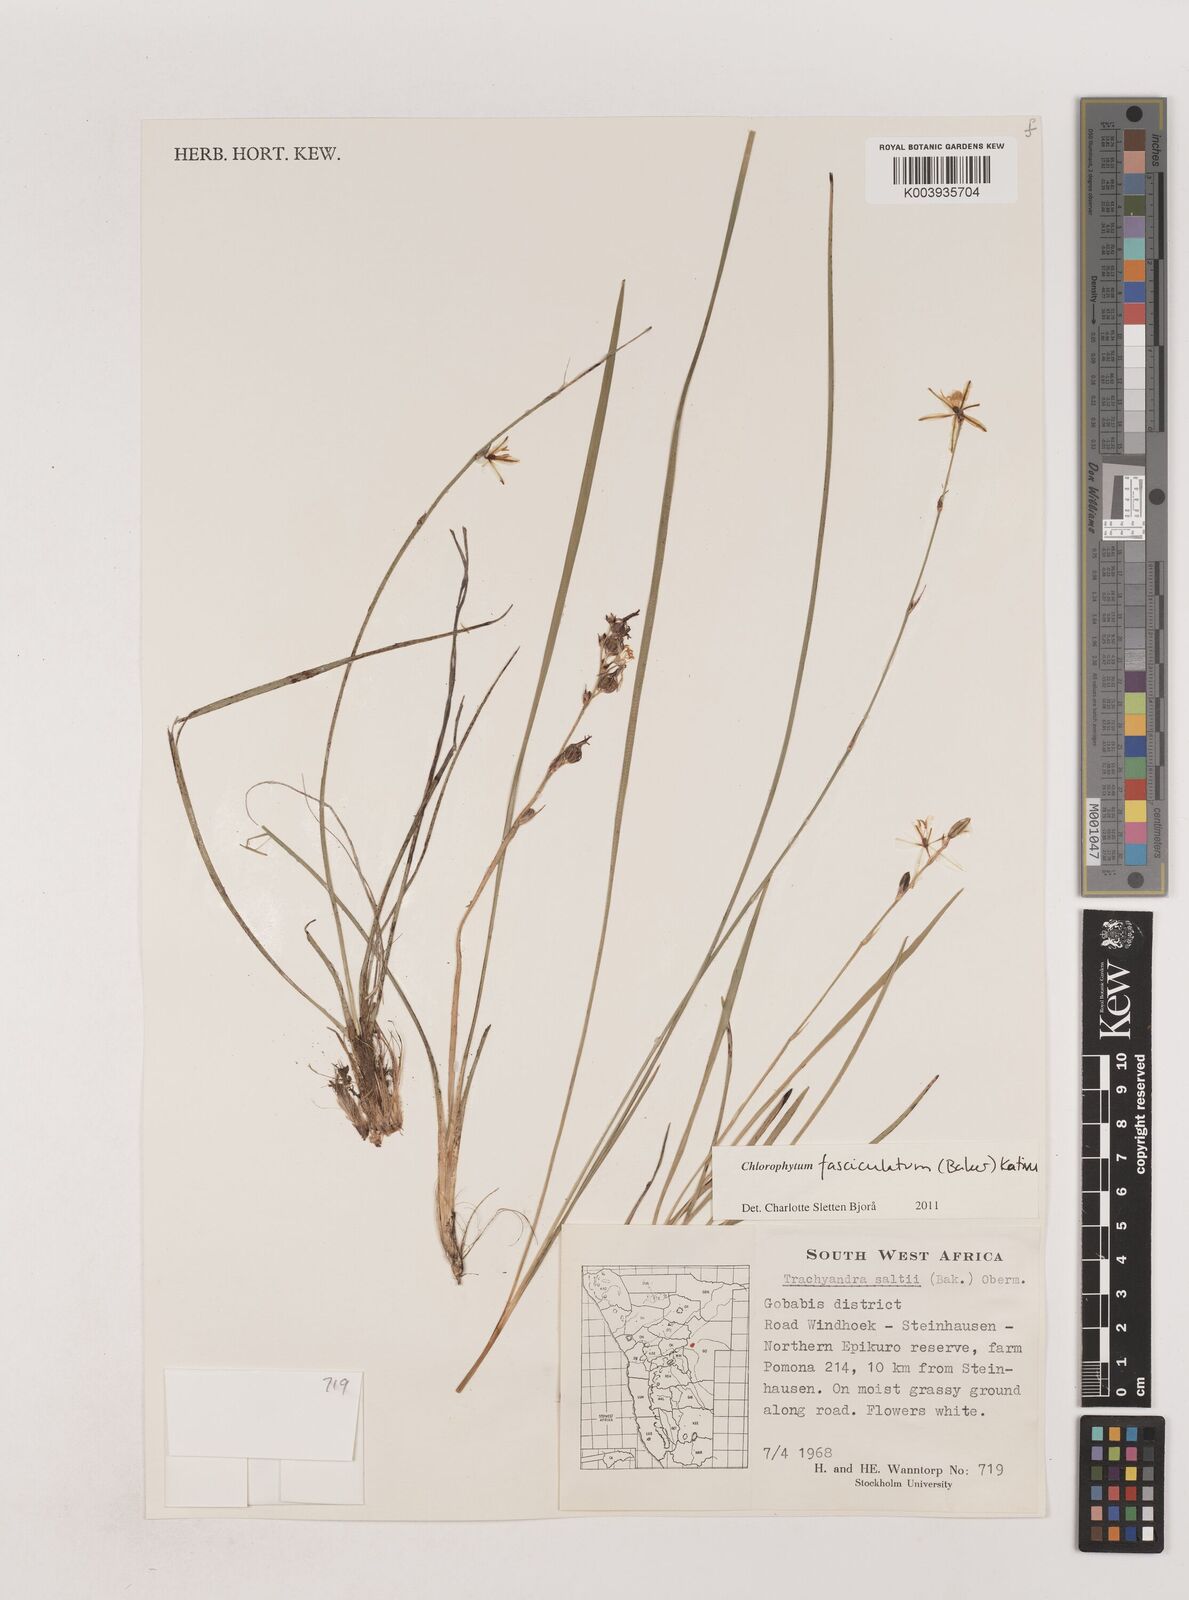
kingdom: Plantae
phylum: Tracheophyta
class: Liliopsida
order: Asparagales
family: Asparagaceae
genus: Chlorophytum
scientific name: Chlorophytum fasciculatum
